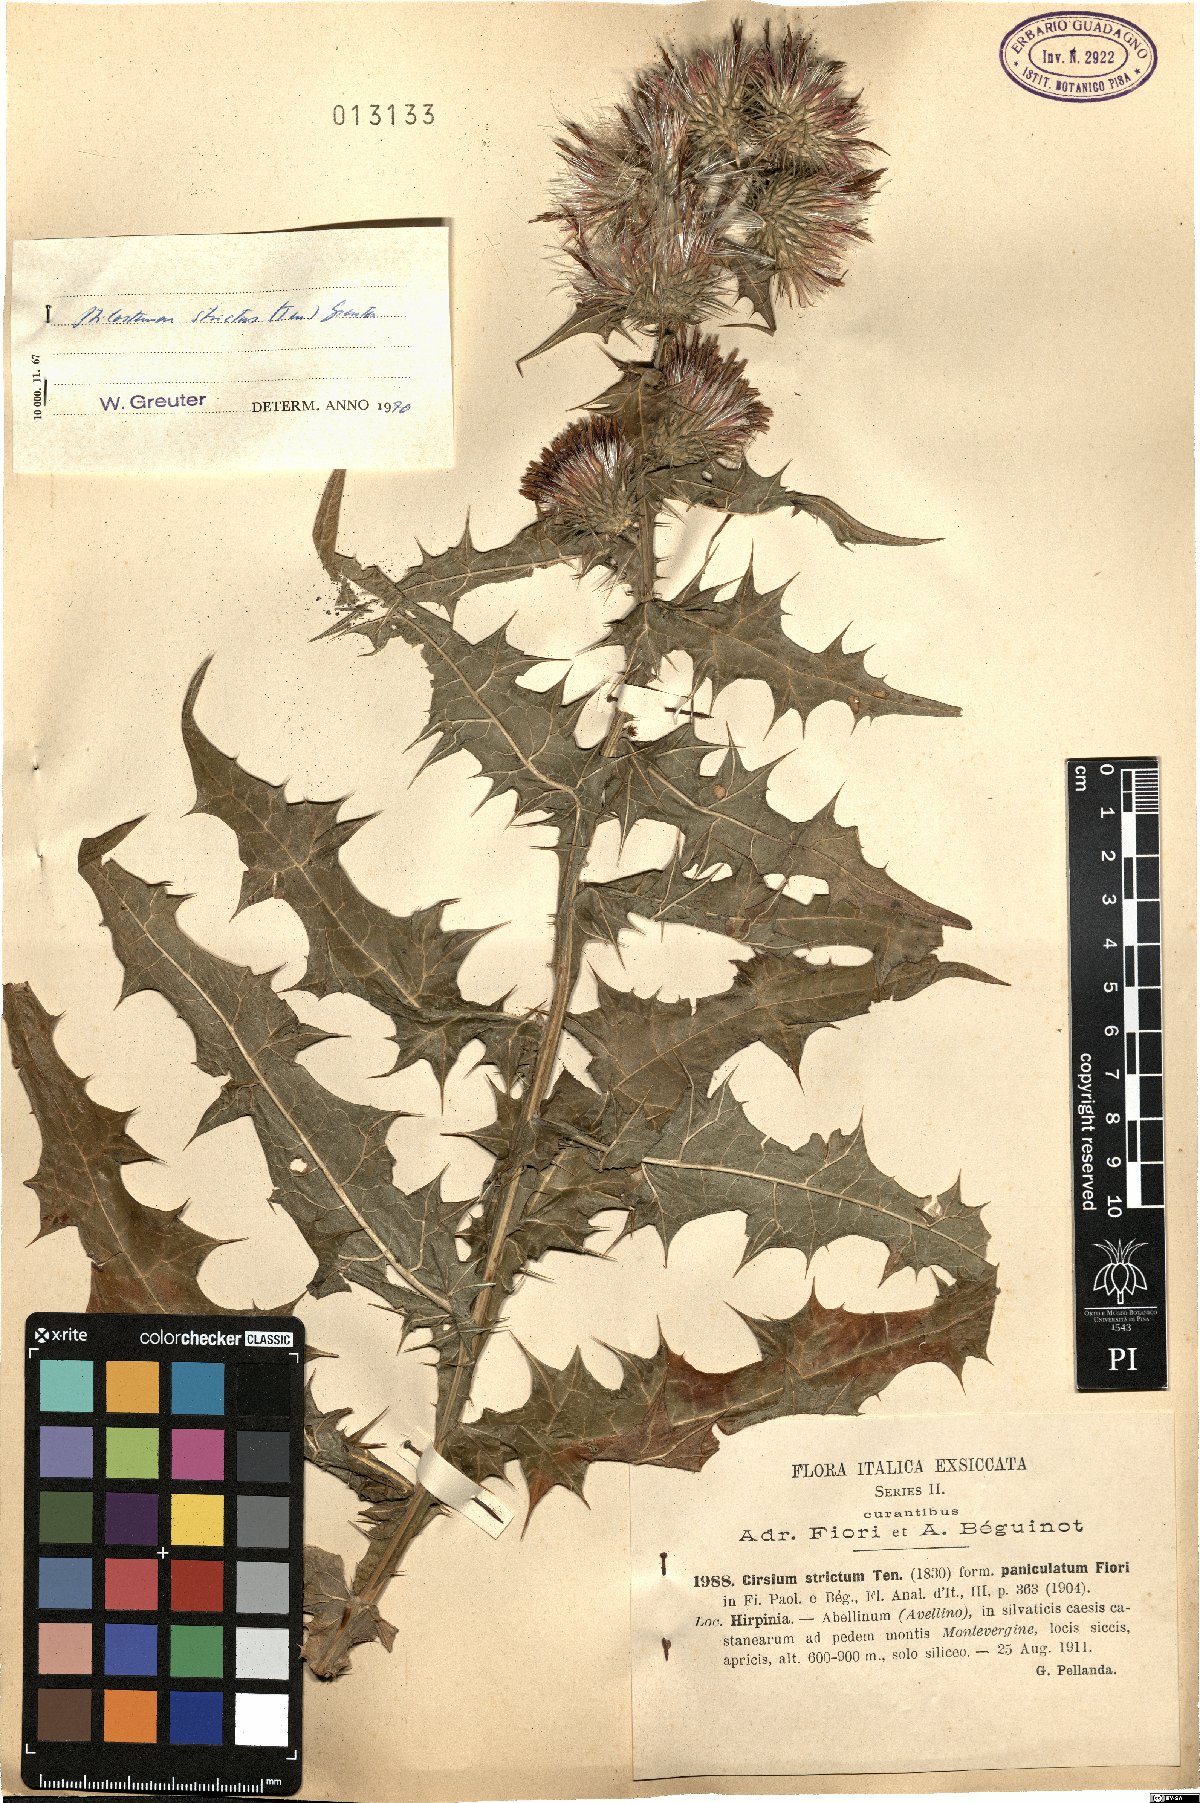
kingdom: Plantae
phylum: Tracheophyta
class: Magnoliopsida
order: Asterales
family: Asteraceae
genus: Ptilostemon
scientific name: Ptilostemon strictus
